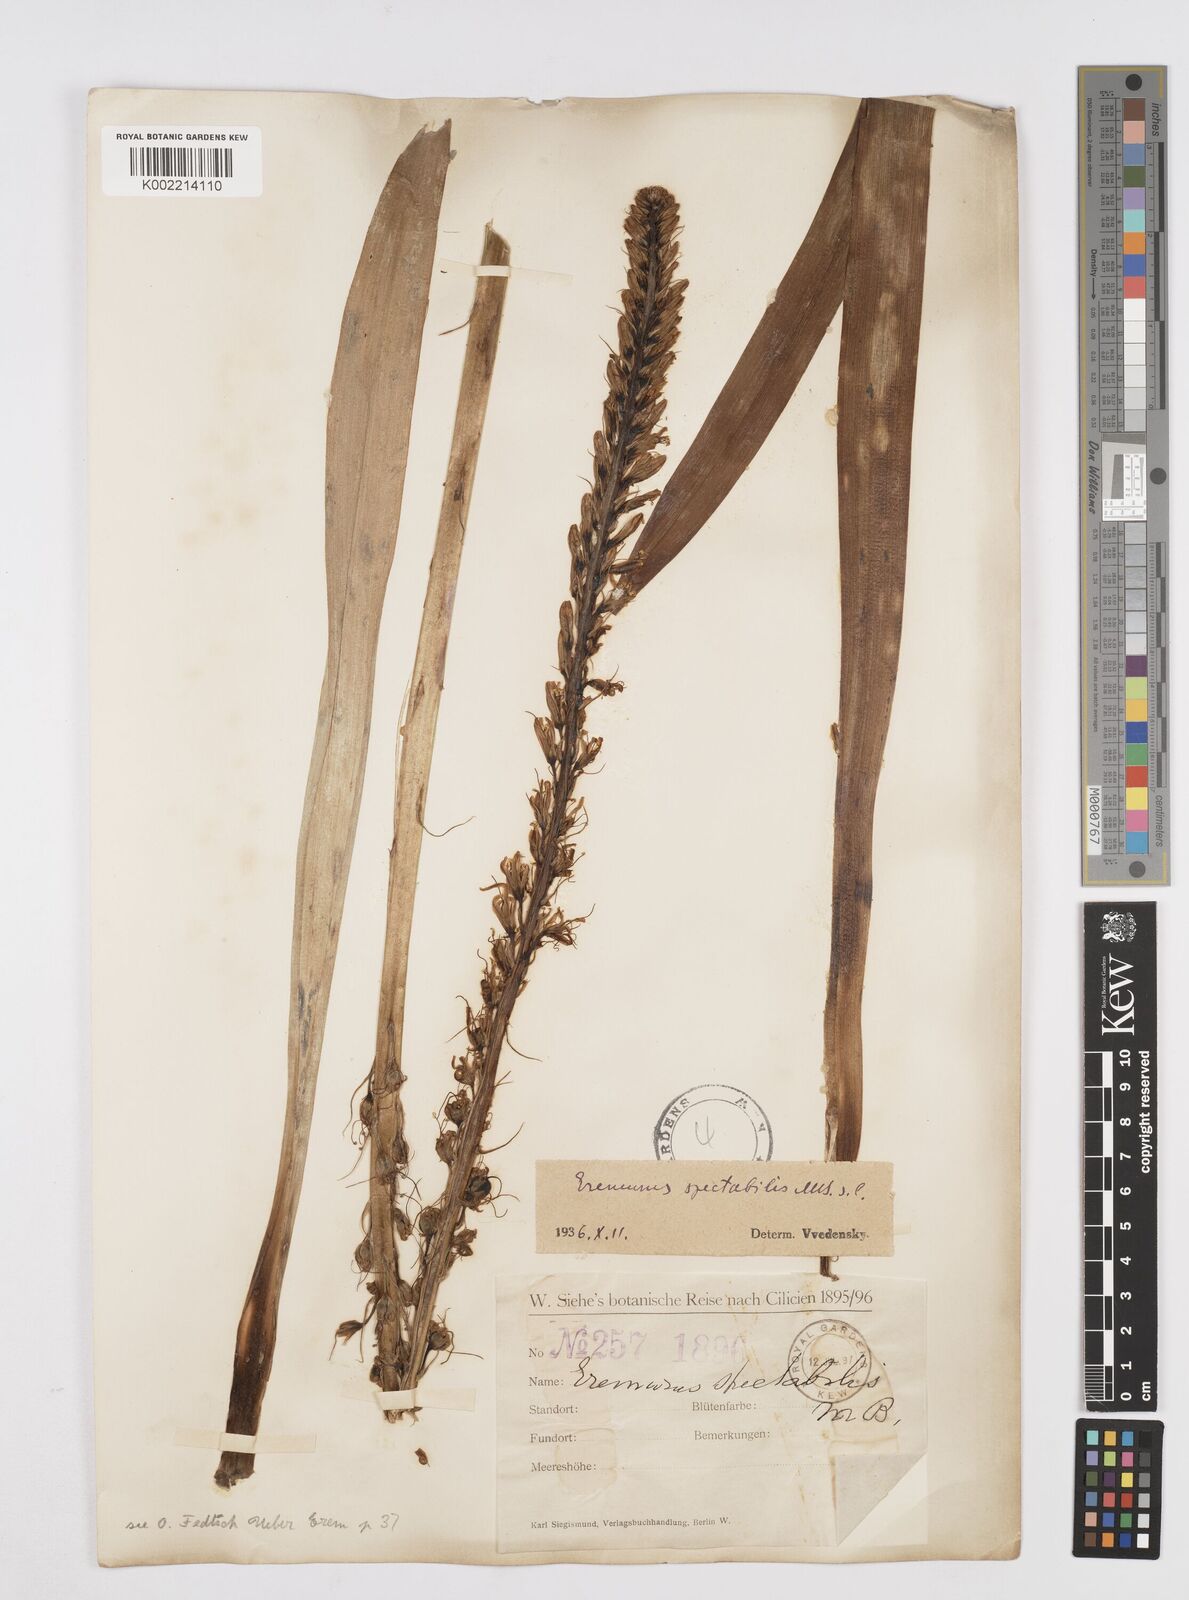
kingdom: Plantae
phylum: Tracheophyta
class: Liliopsida
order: Asparagales
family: Asphodelaceae
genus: Eremurus
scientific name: Eremurus spectabilis
